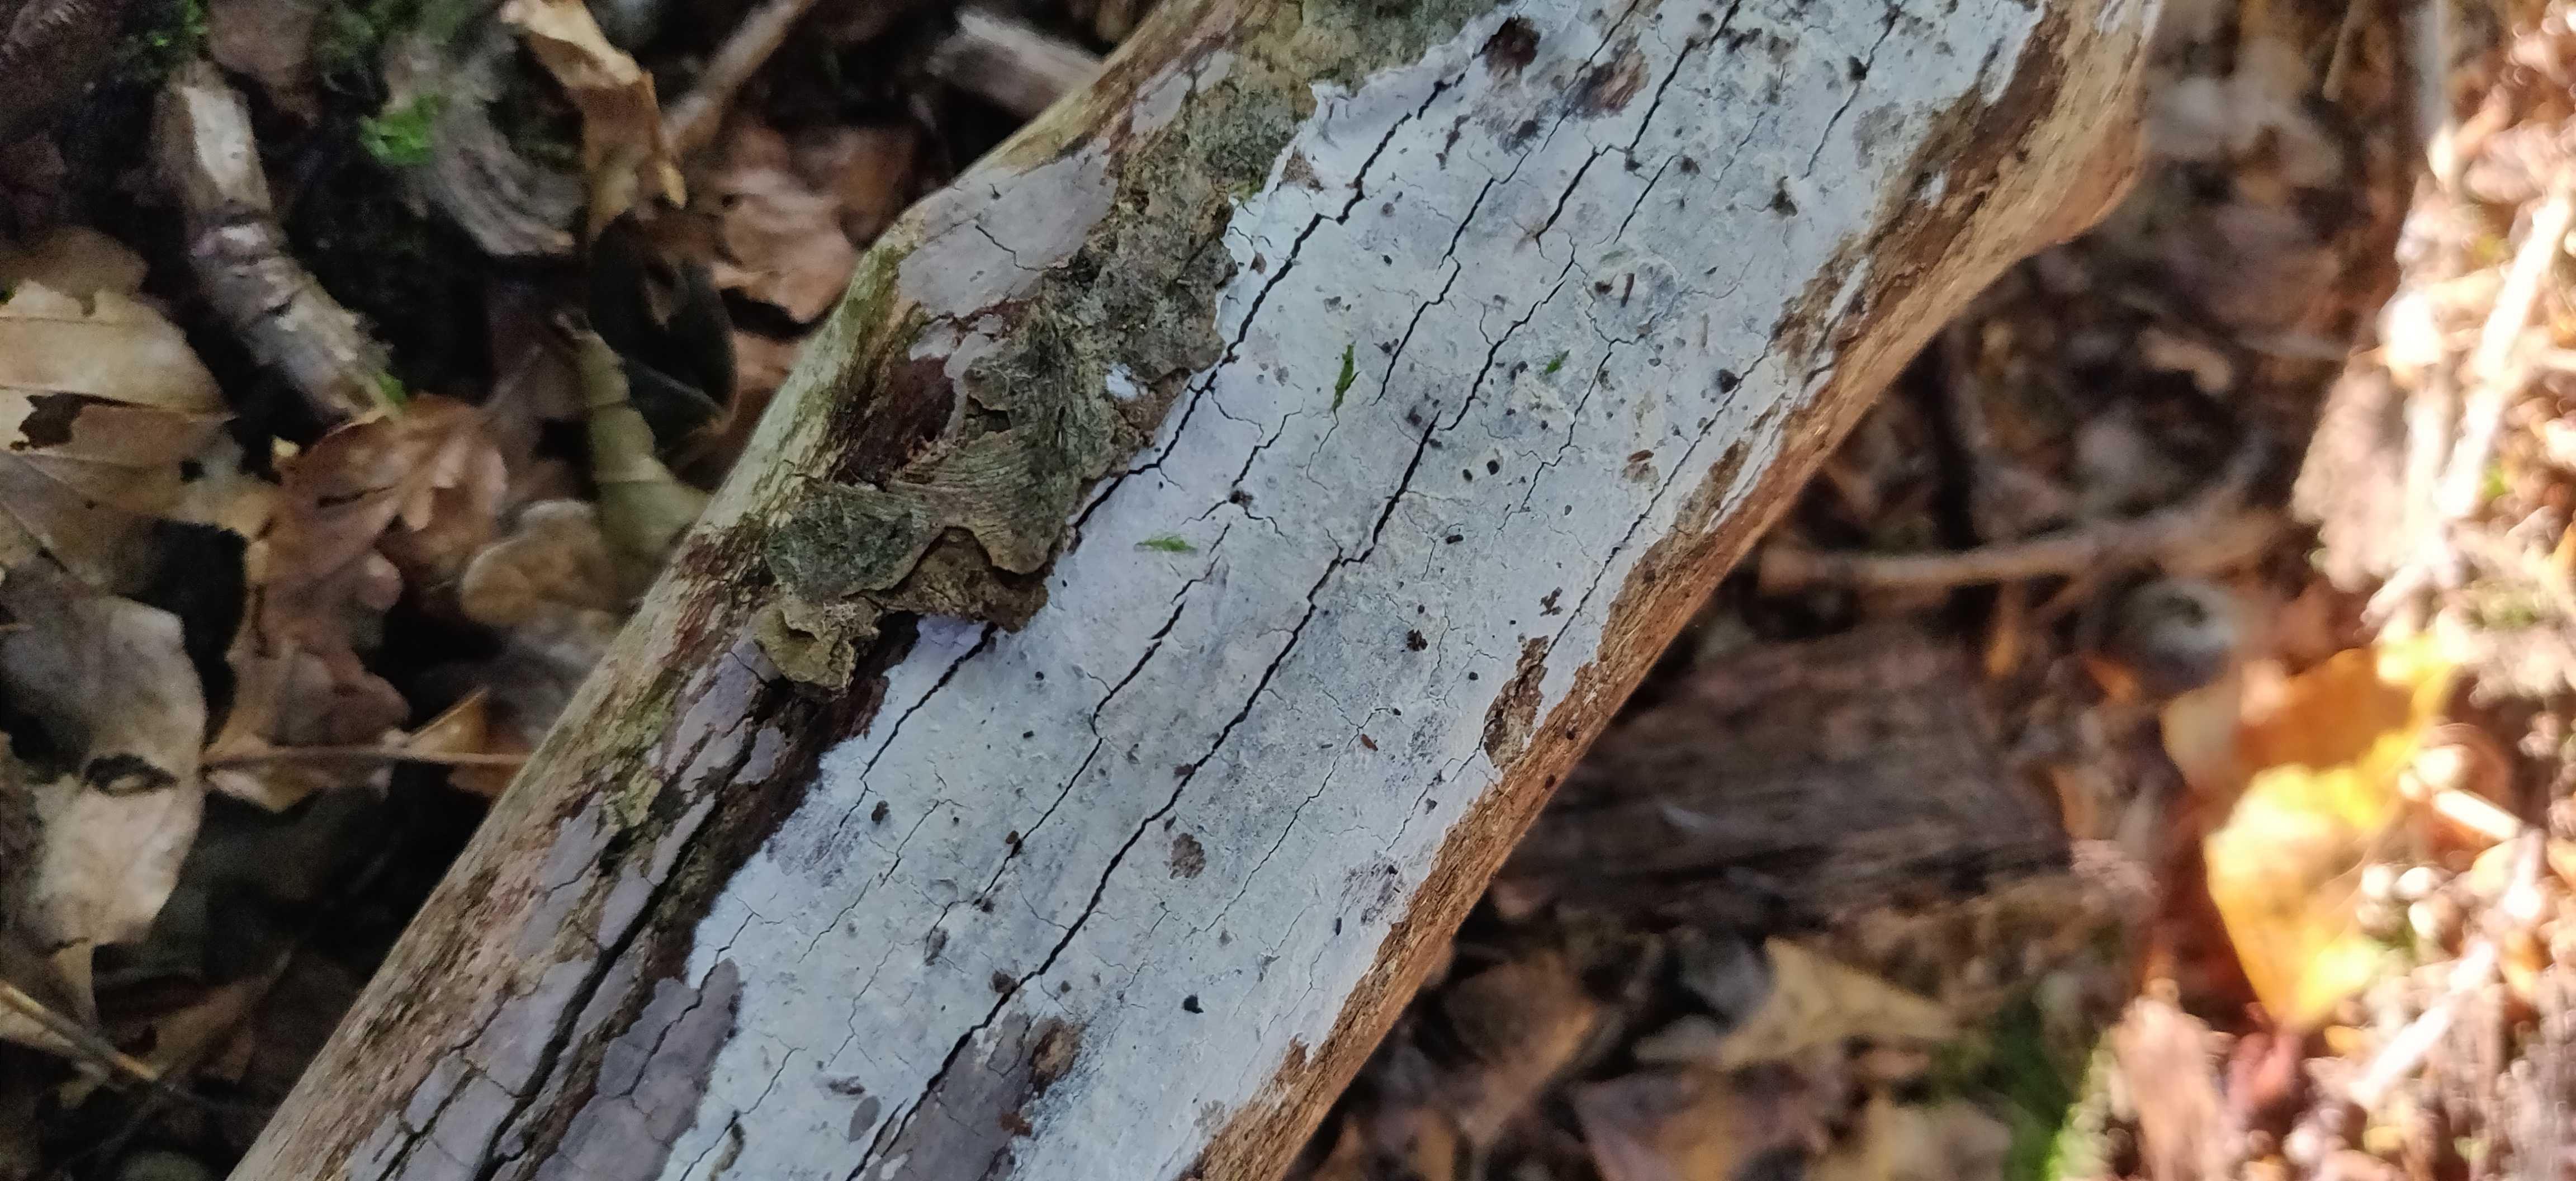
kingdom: Fungi
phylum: Basidiomycota
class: Agaricomycetes
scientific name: Agaricomycetes
